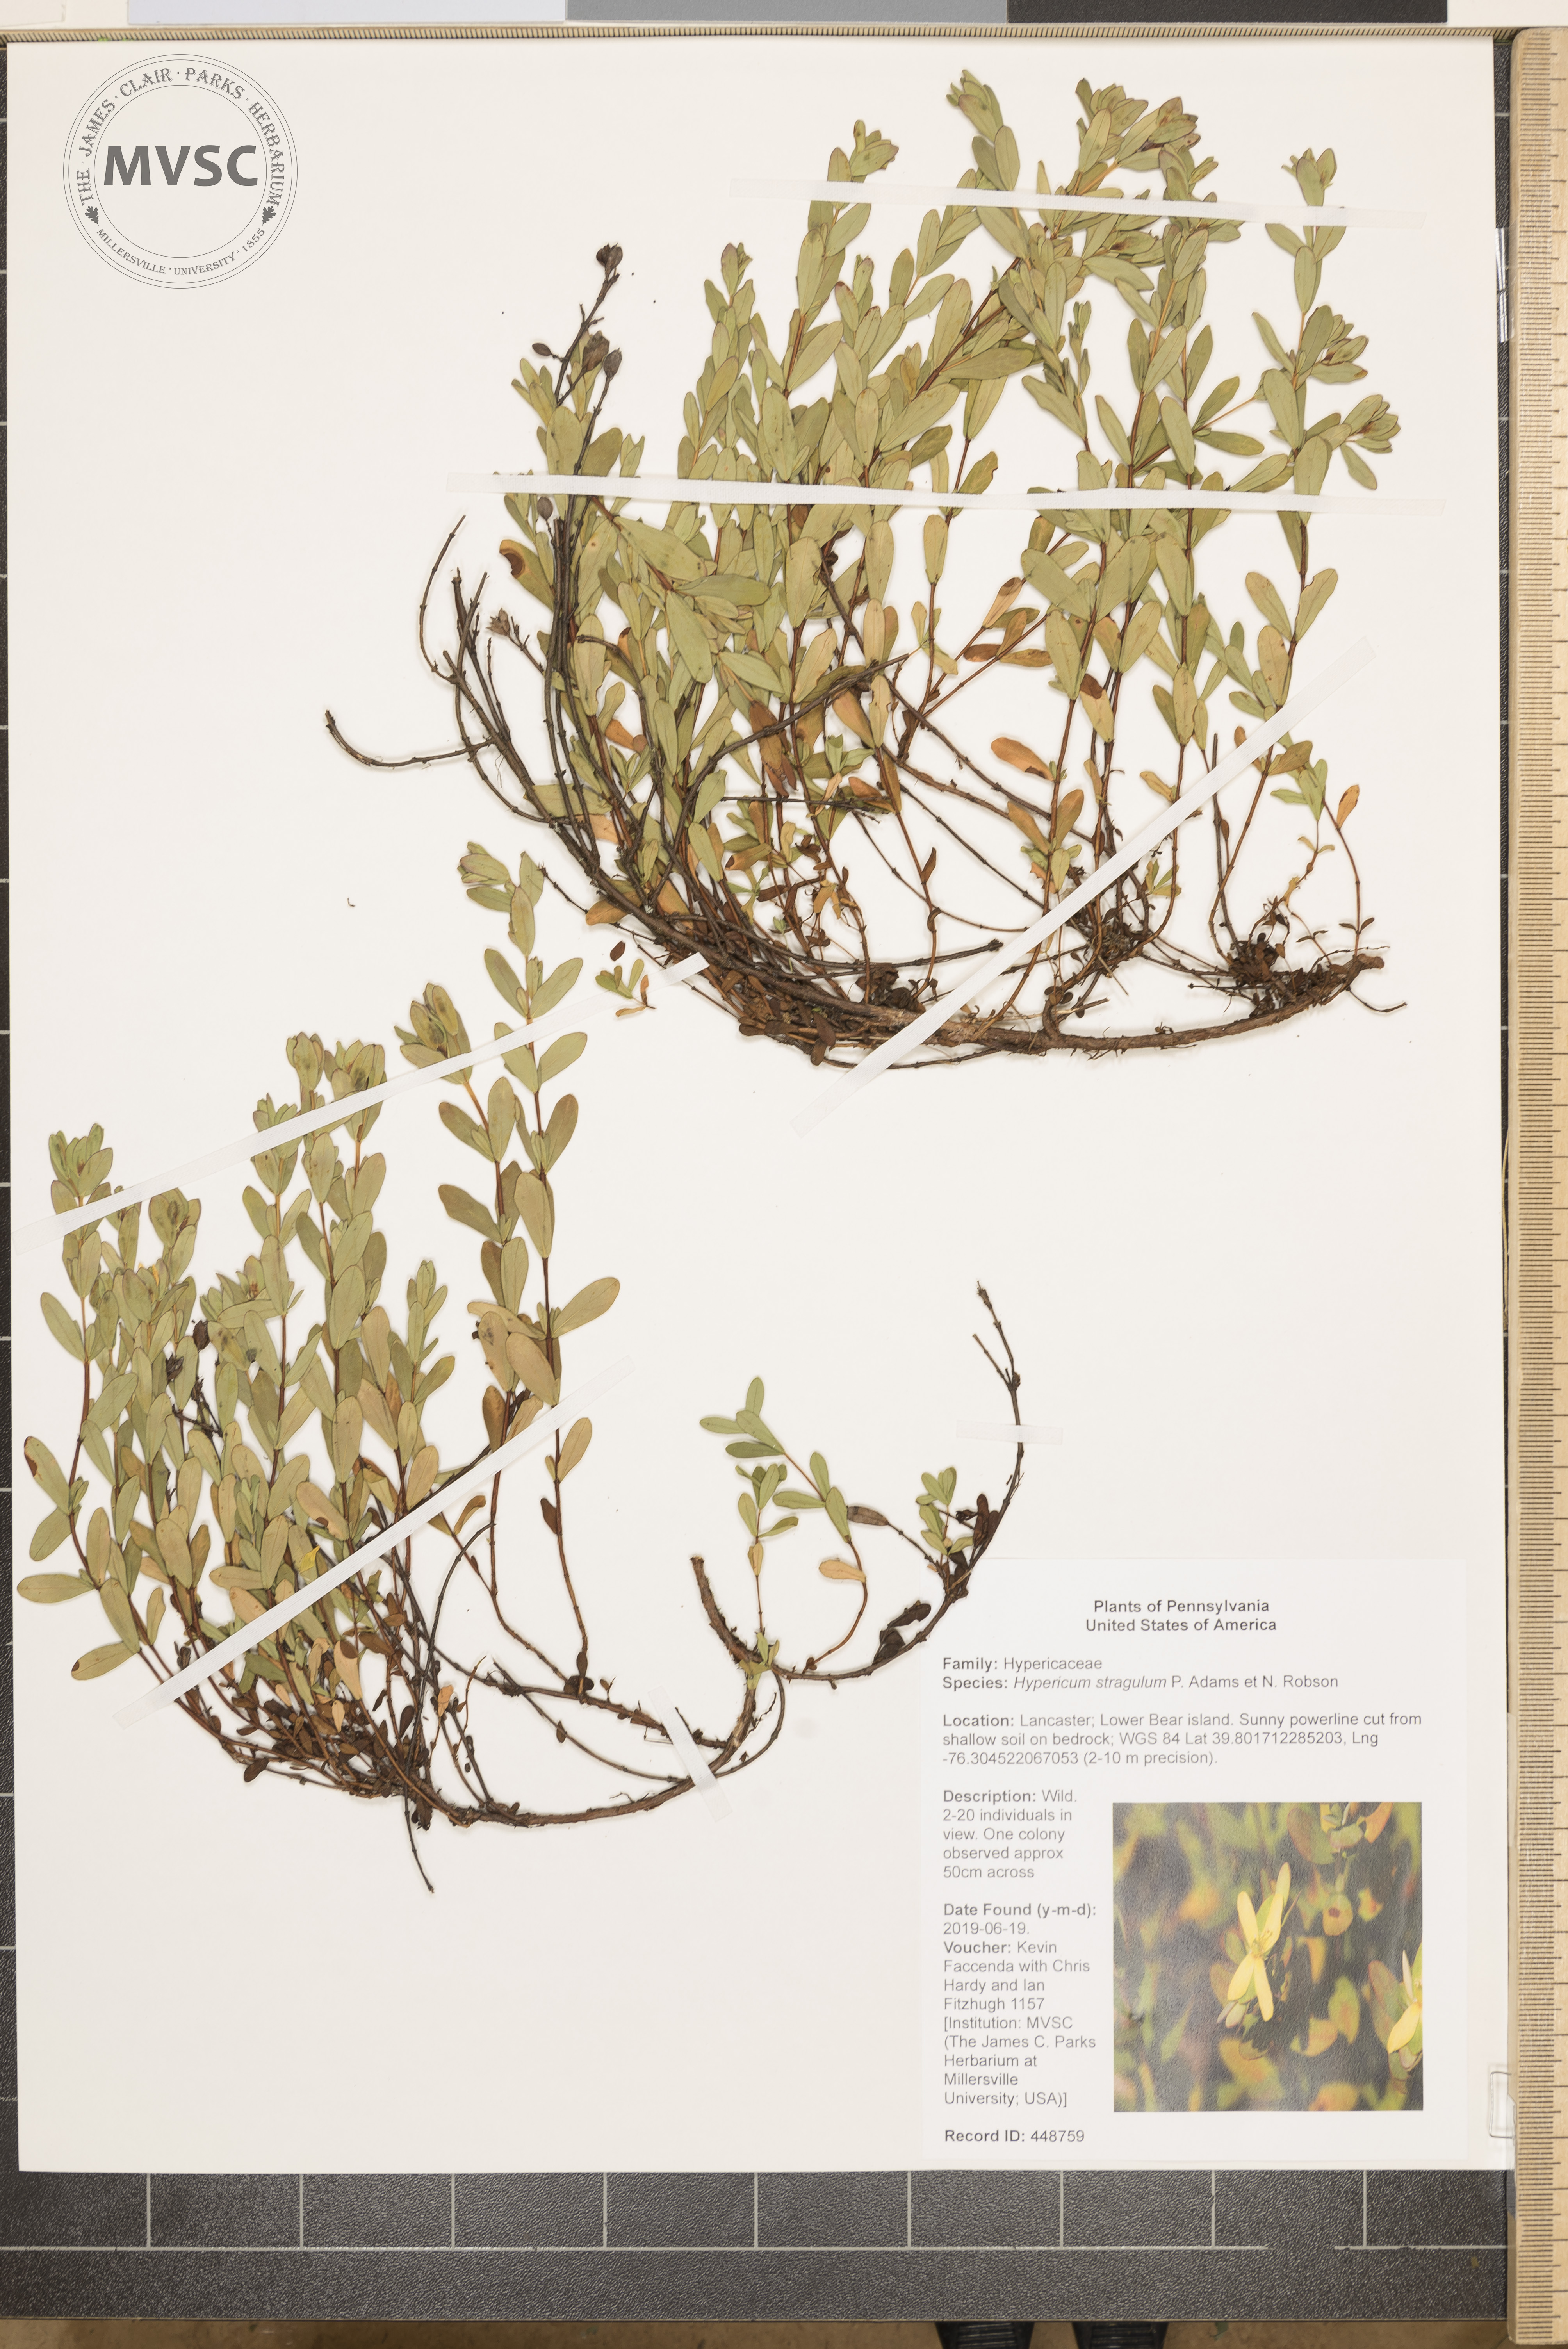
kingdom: Plantae
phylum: Tracheophyta
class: Magnoliopsida
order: Malpighiales
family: Hypericaceae
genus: Hypericum
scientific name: Hypericum hypericoides
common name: St. andrew's cross
